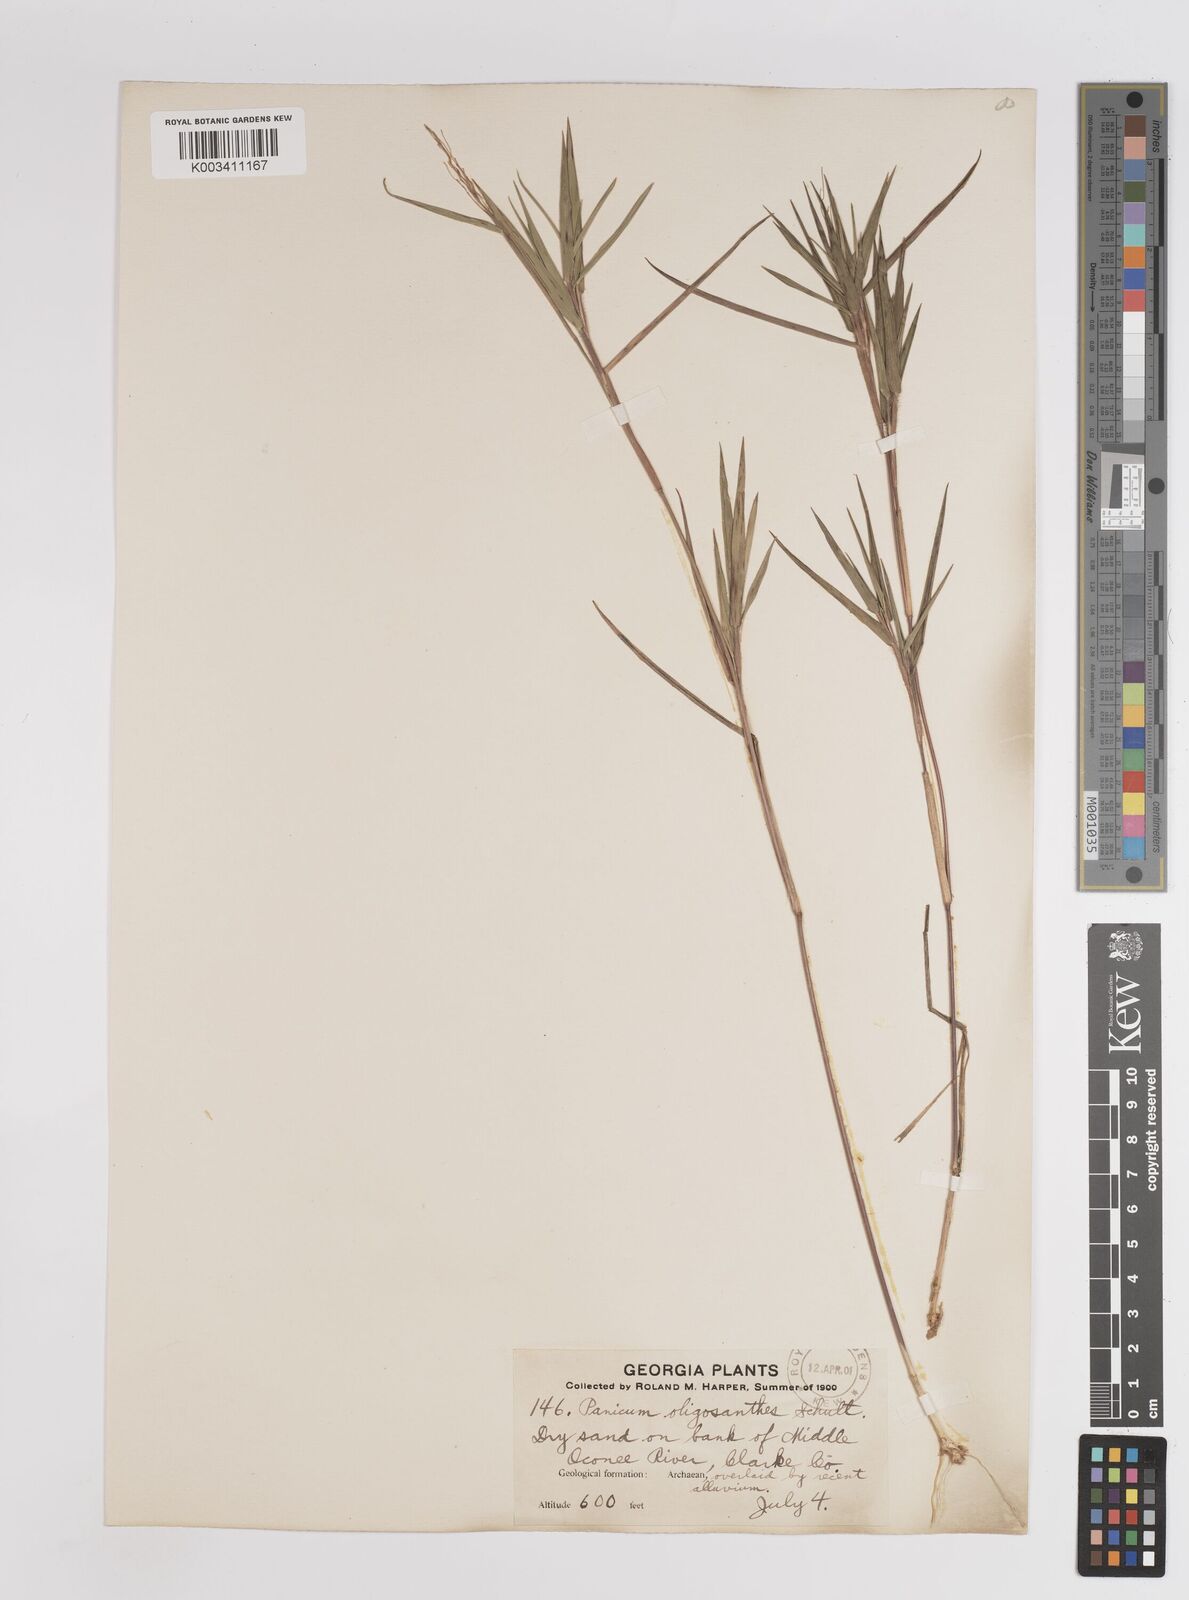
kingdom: Plantae
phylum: Tracheophyta
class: Liliopsida
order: Poales
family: Poaceae
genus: Dichanthelium
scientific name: Dichanthelium oligosanthes
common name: Few-anther obscuregrass
